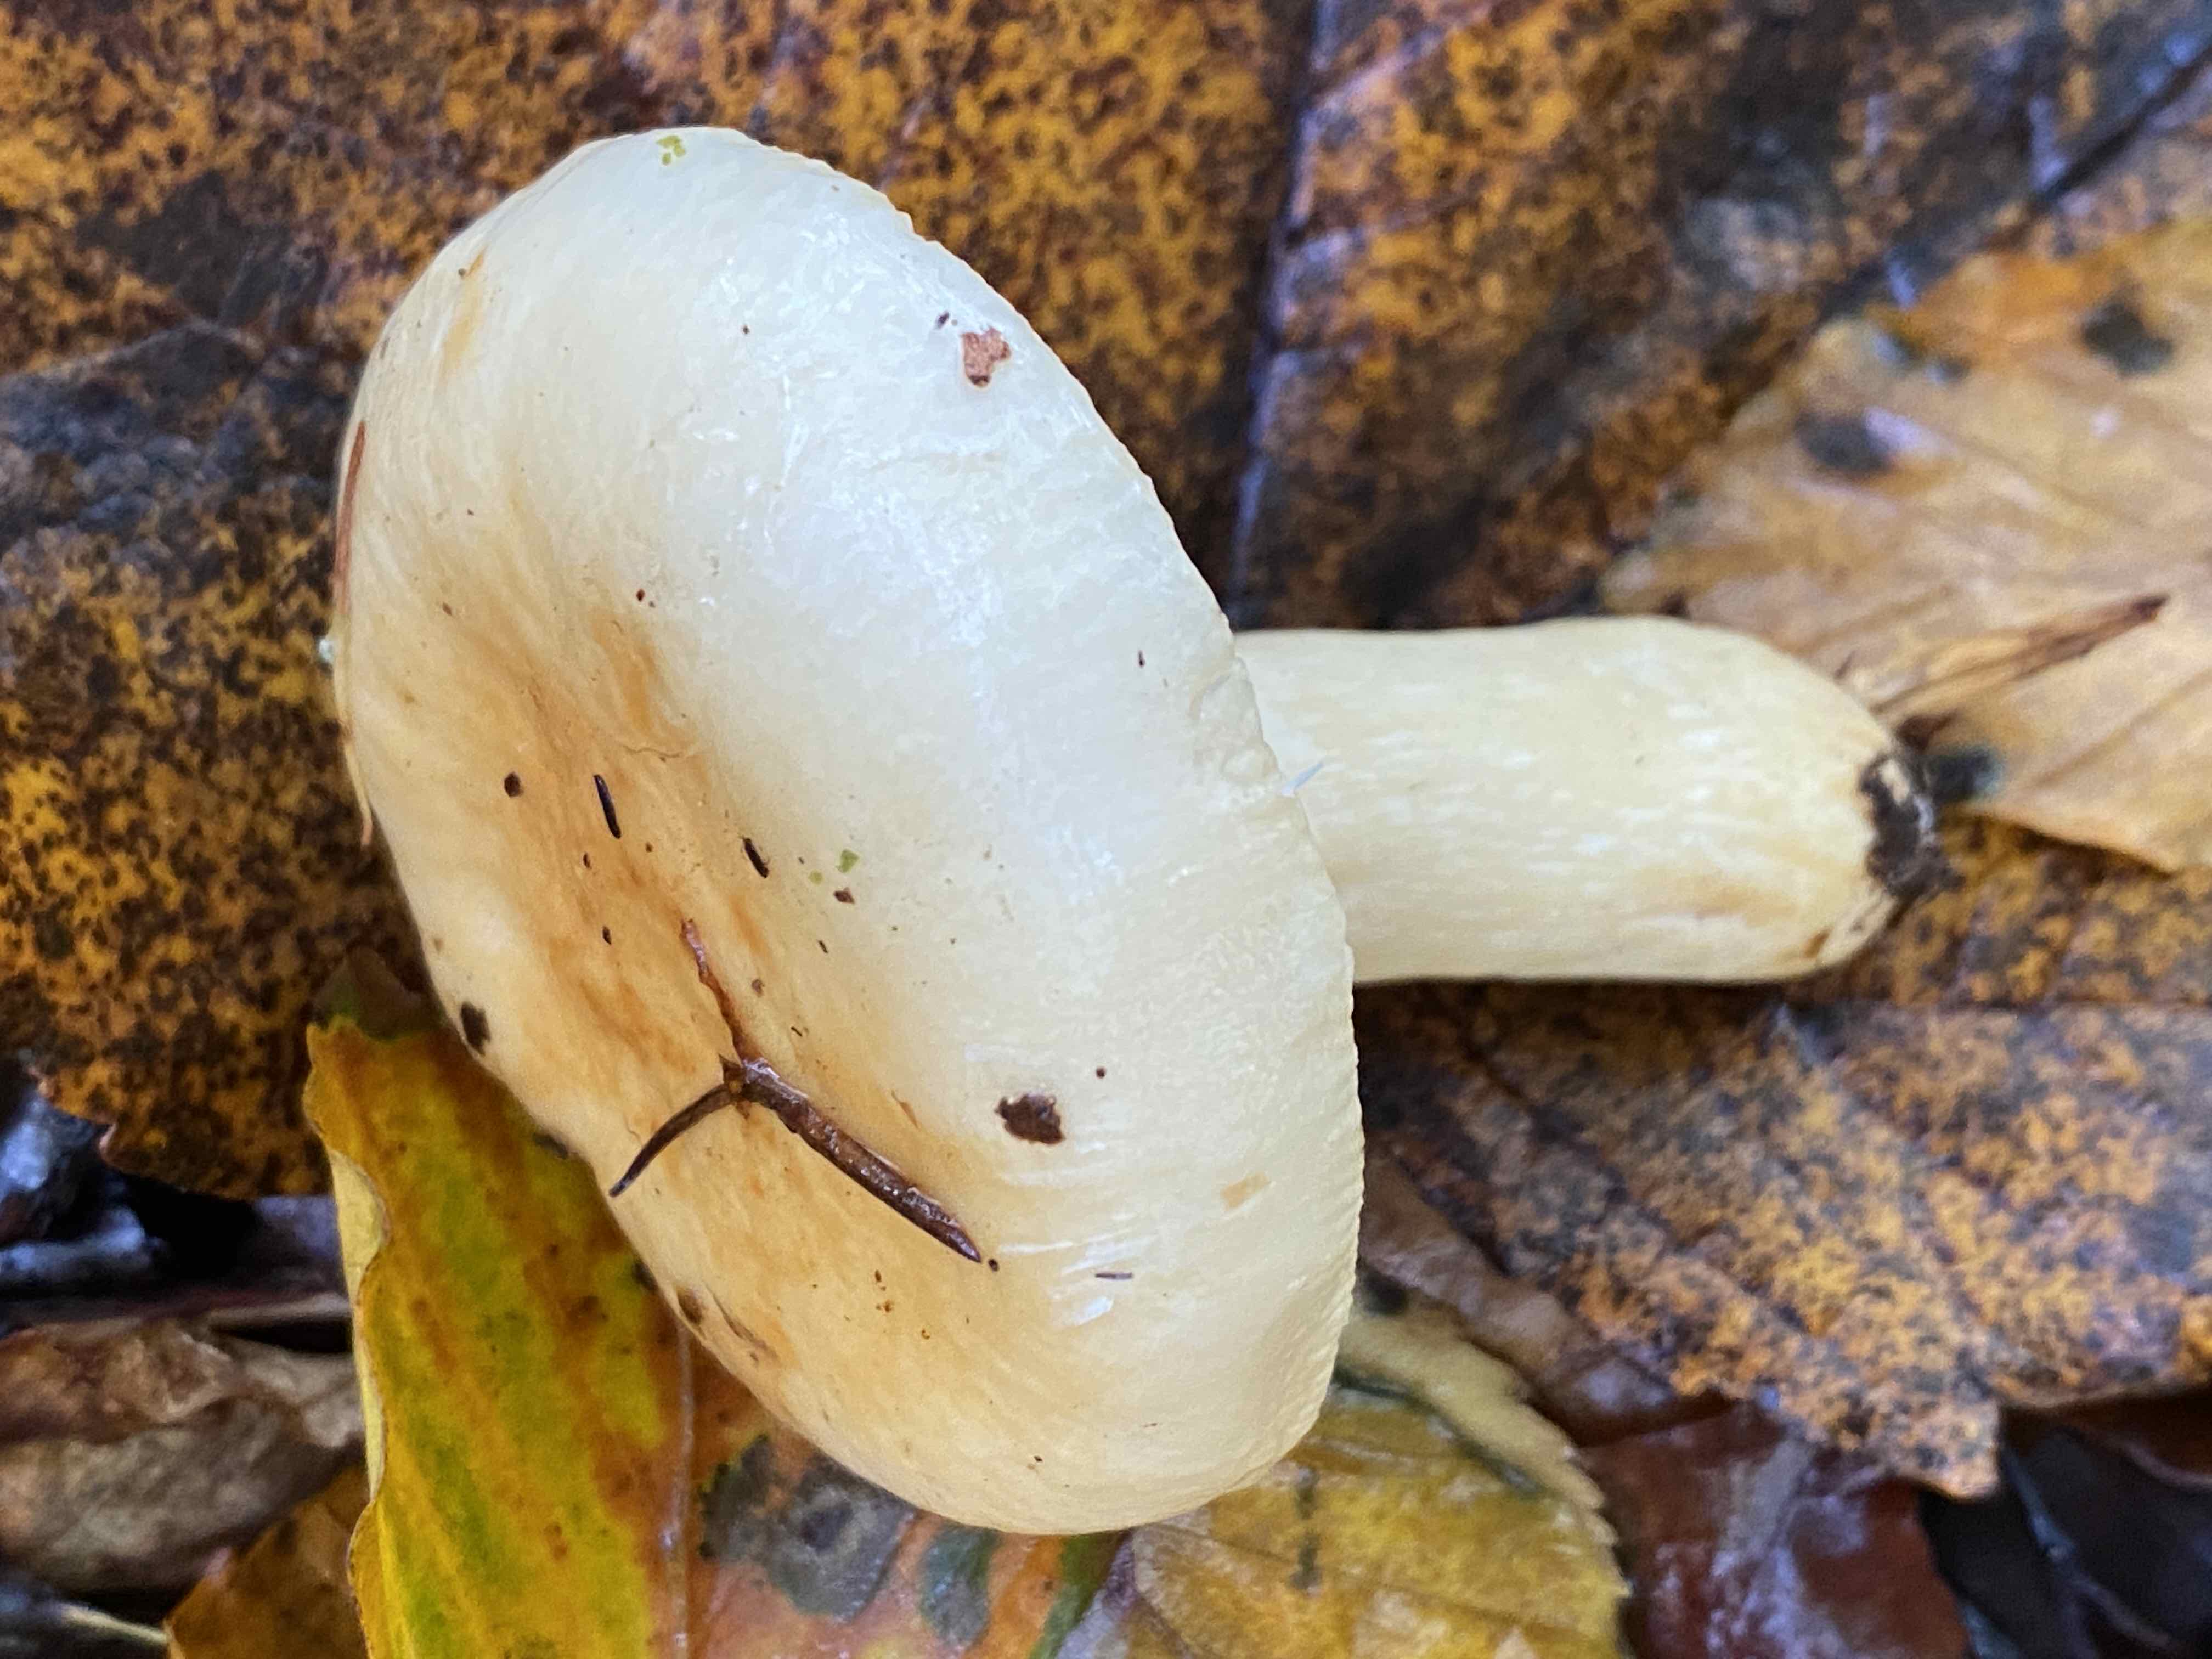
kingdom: Fungi
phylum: Basidiomycota
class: Agaricomycetes
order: Russulales
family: Russulaceae
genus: Russula
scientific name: Russula fellea
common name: galde-skørhat
